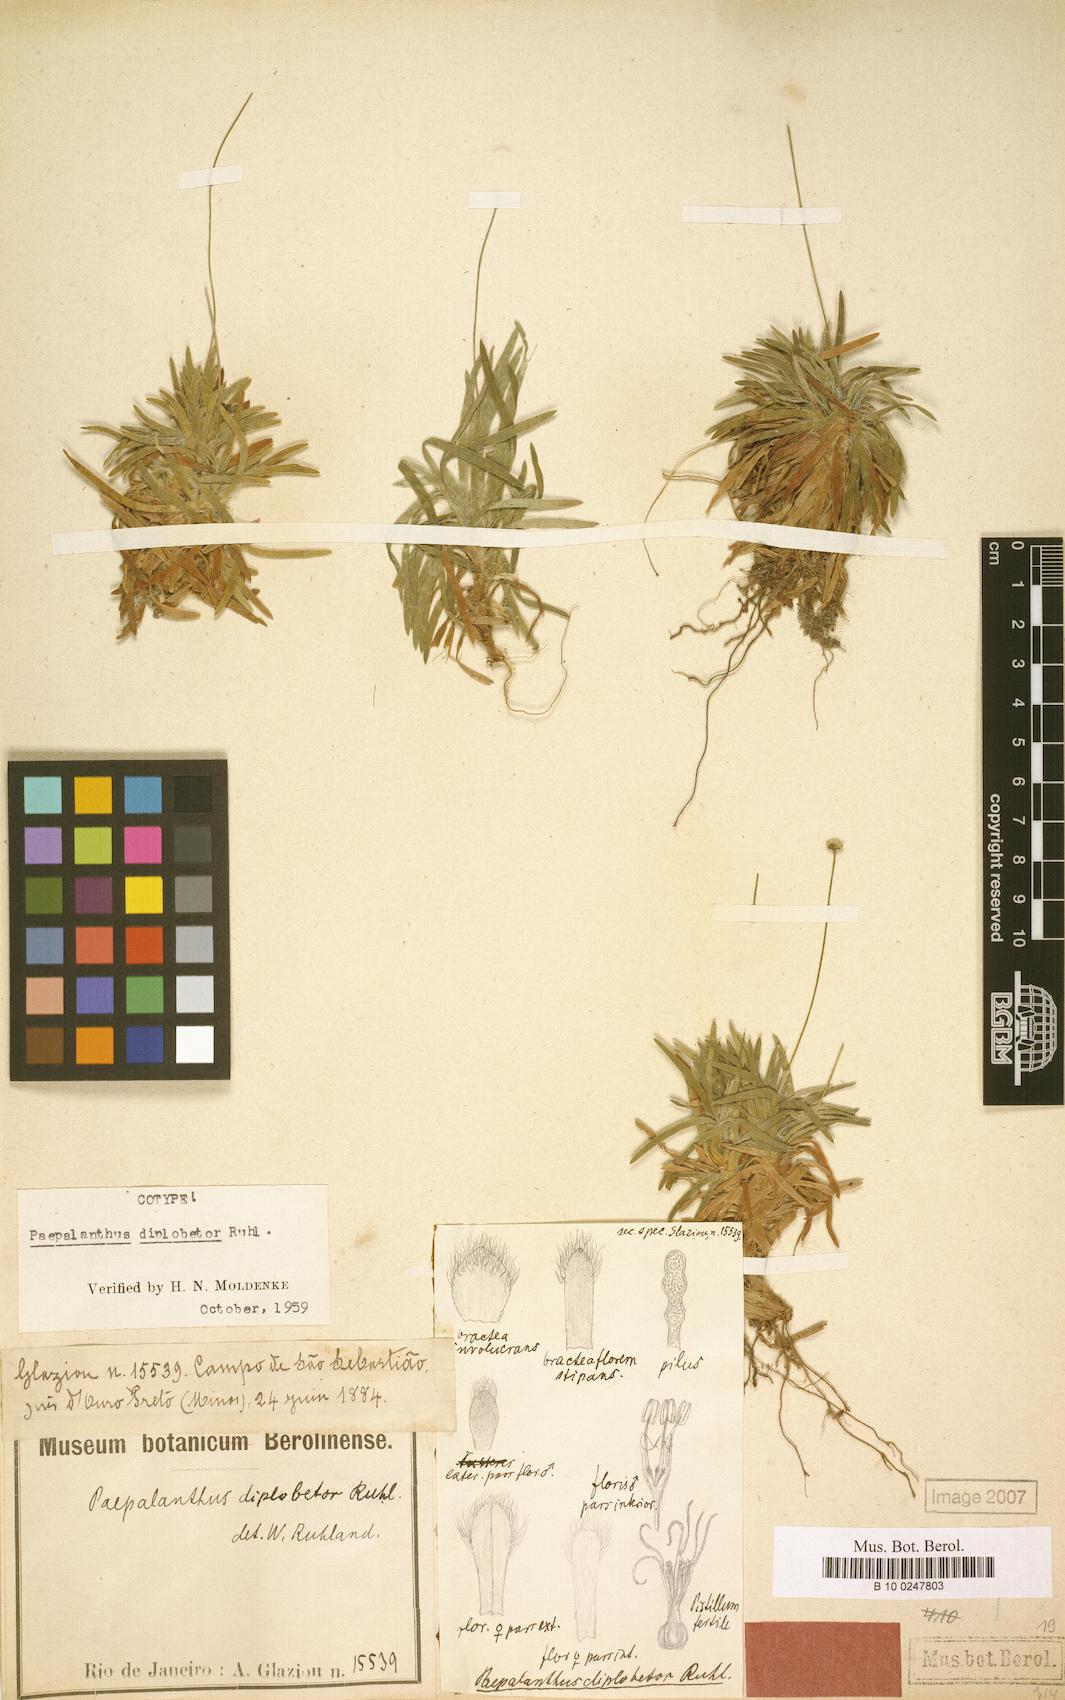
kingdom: Plantae
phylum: Tracheophyta
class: Liliopsida
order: Poales
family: Eriocaulaceae
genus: Paepalanthus
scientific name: Paepalanthus diplobetor
